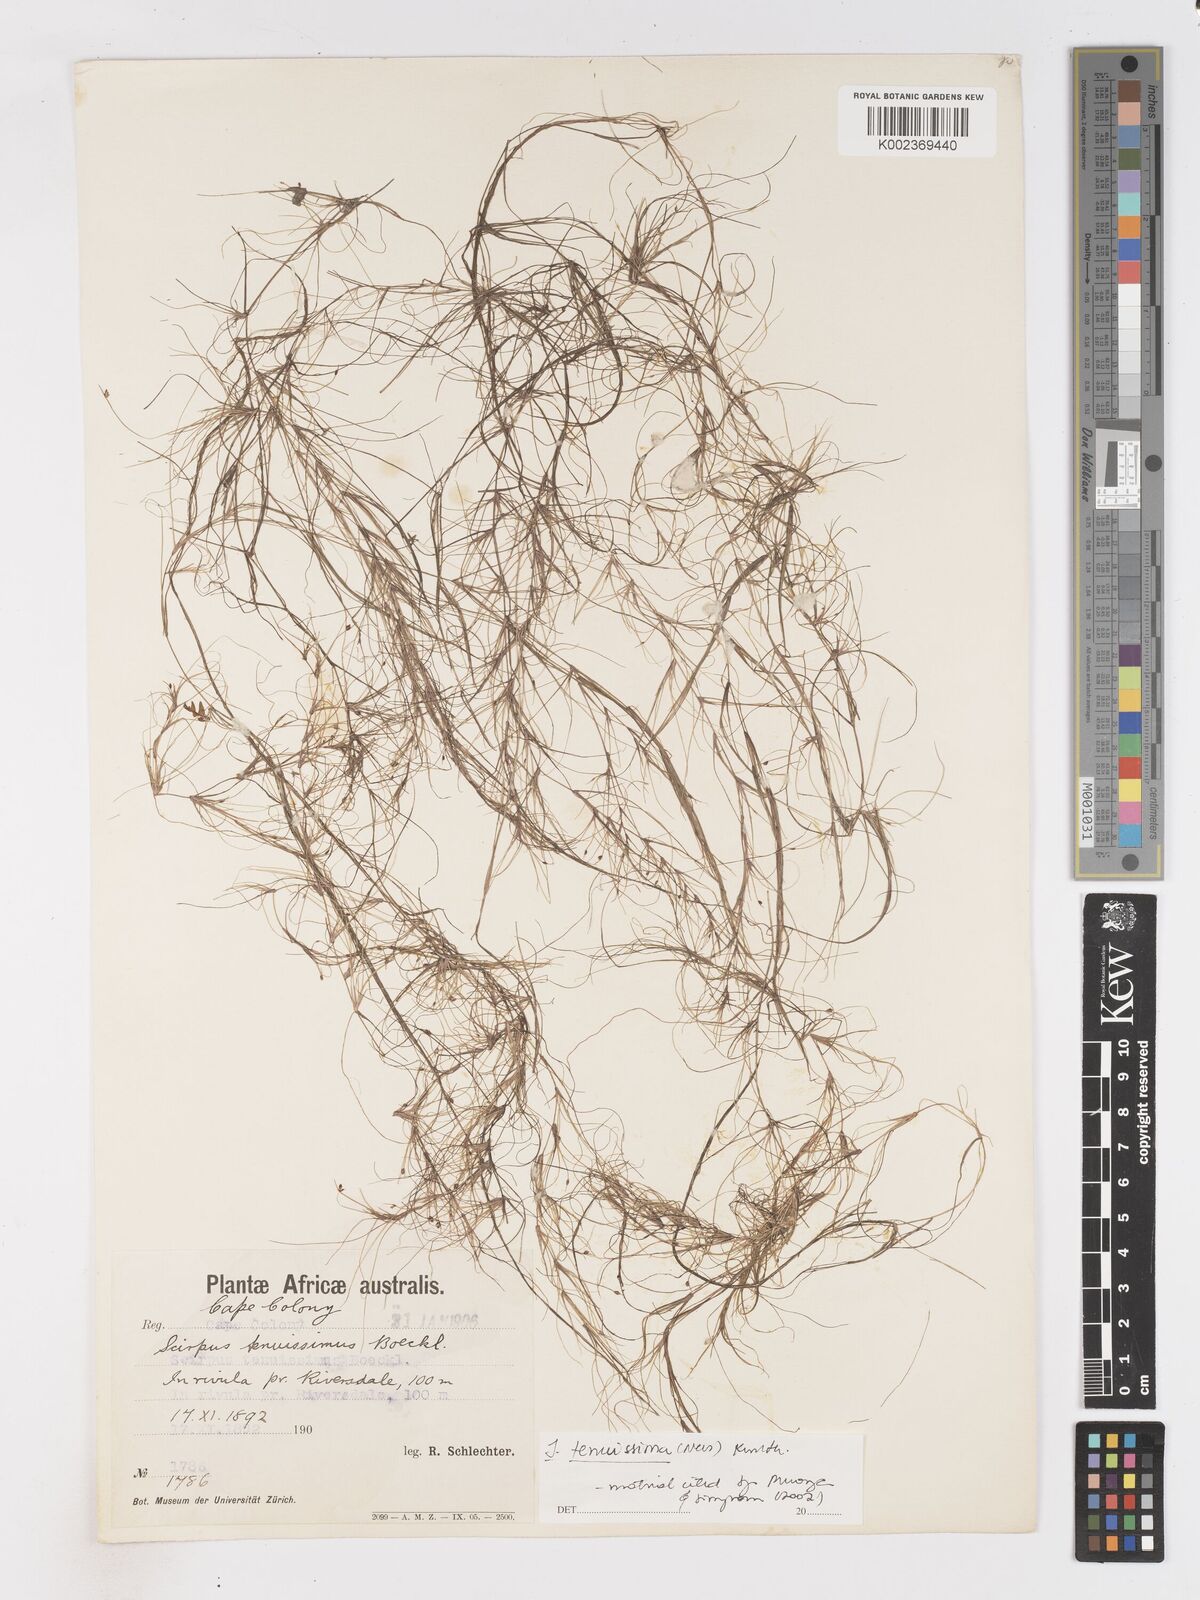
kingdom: Plantae
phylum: Tracheophyta
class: Liliopsida
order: Poales
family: Cyperaceae
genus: Isolepis
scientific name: Isolepis tenuissima
